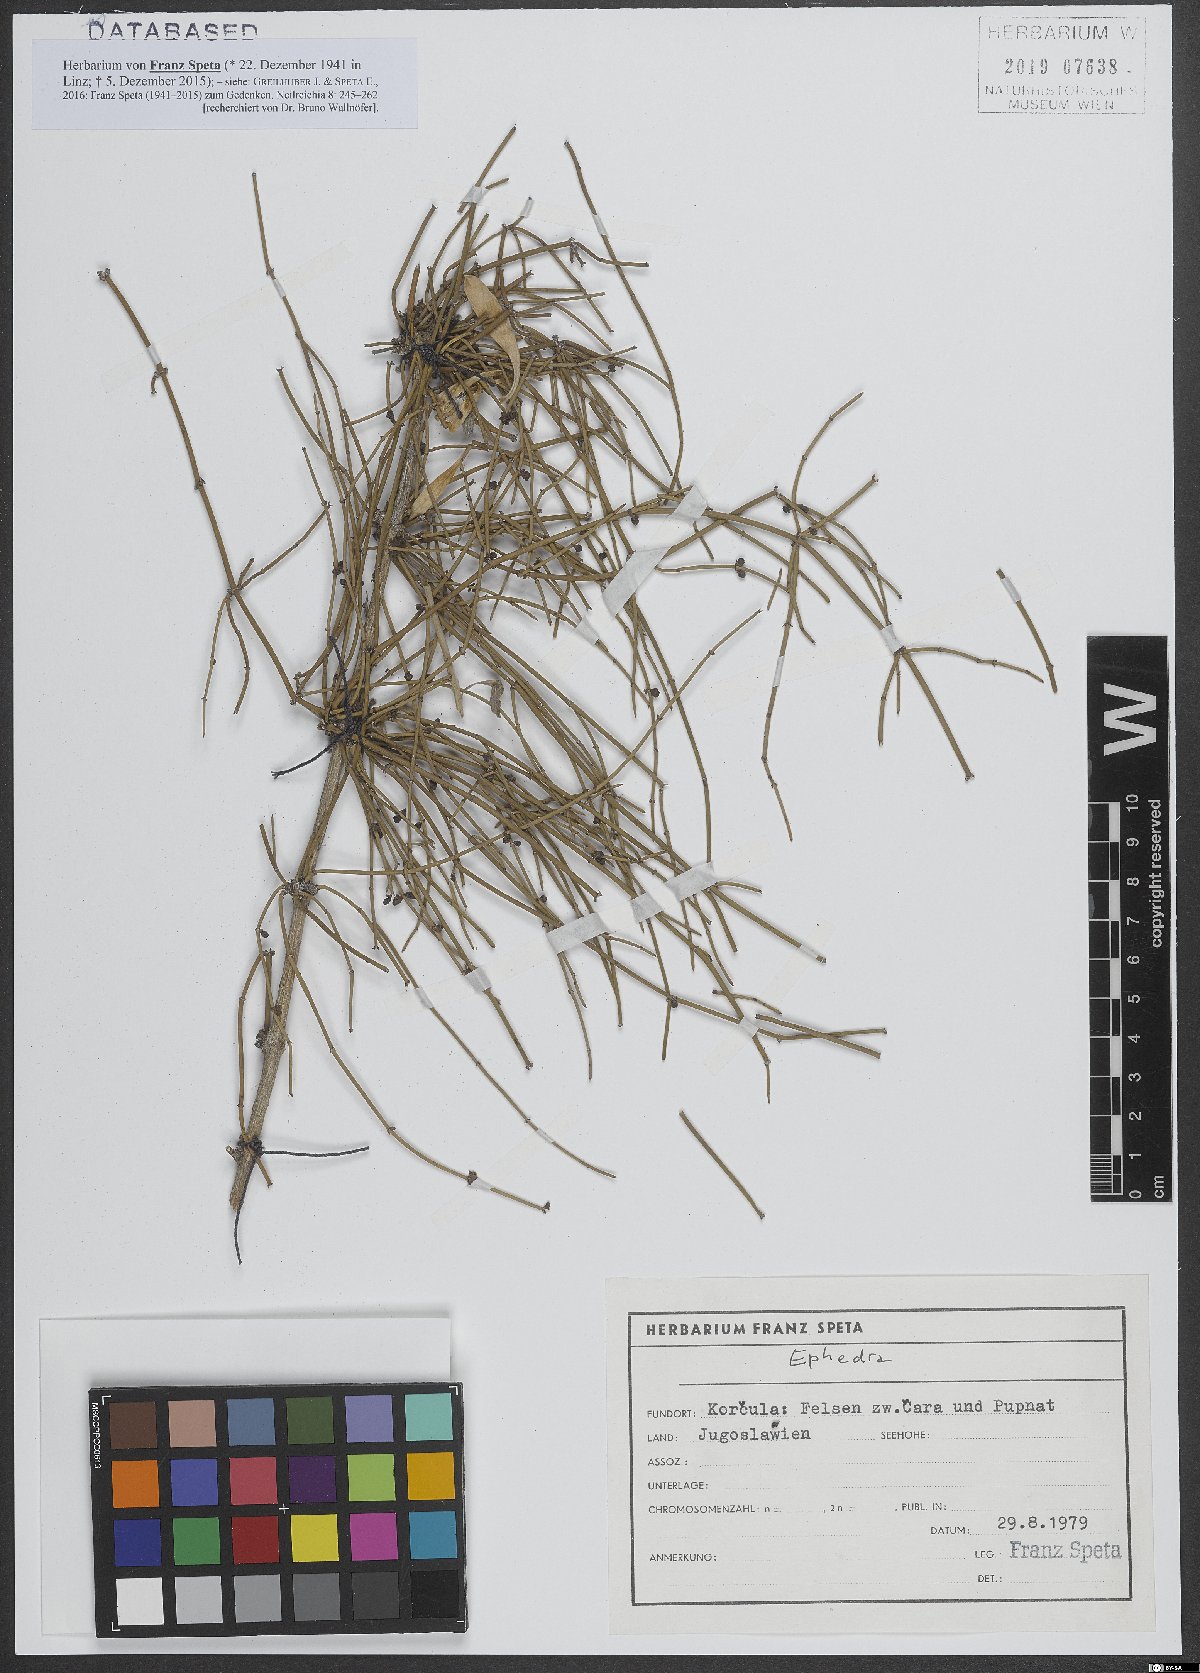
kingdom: Plantae
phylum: Tracheophyta
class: Gnetopsida
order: Ephedrales
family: Ephedraceae
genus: Ephedra
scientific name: Ephedra
